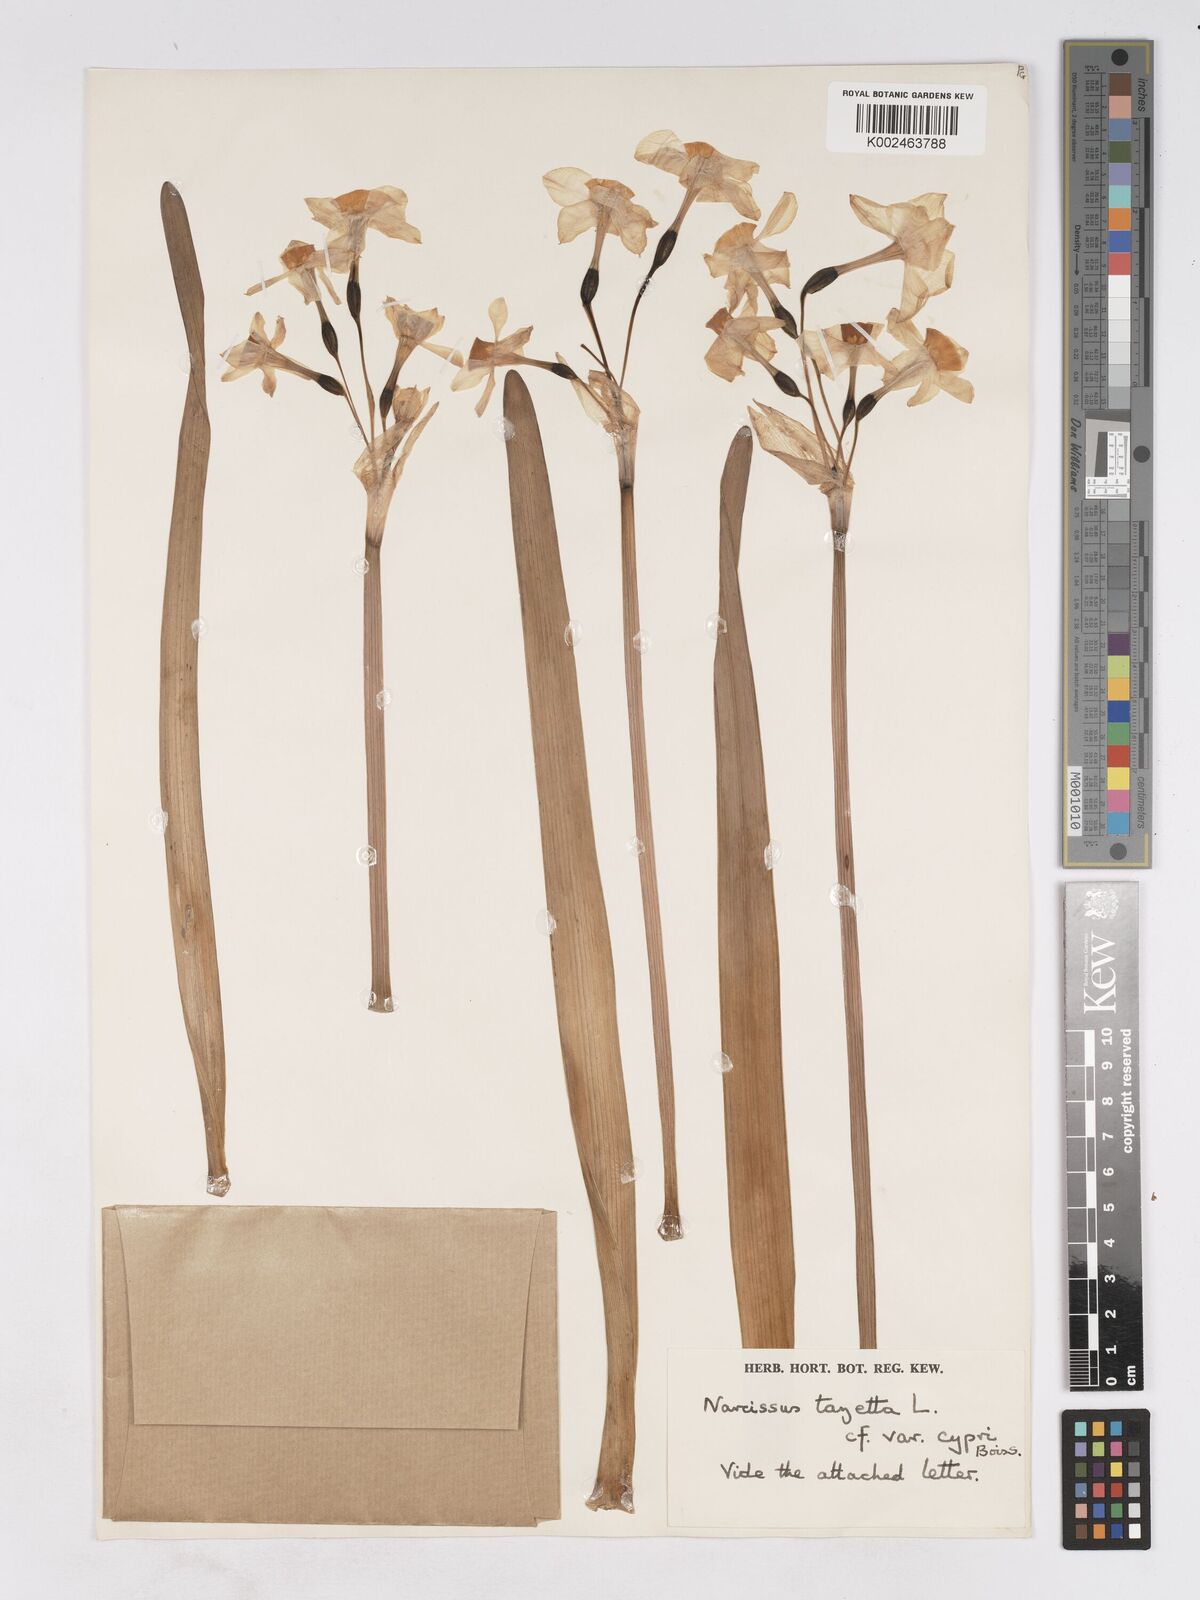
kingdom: Plantae
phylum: Tracheophyta
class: Liliopsida
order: Asparagales
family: Amaryllidaceae
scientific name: Amaryllidaceae
